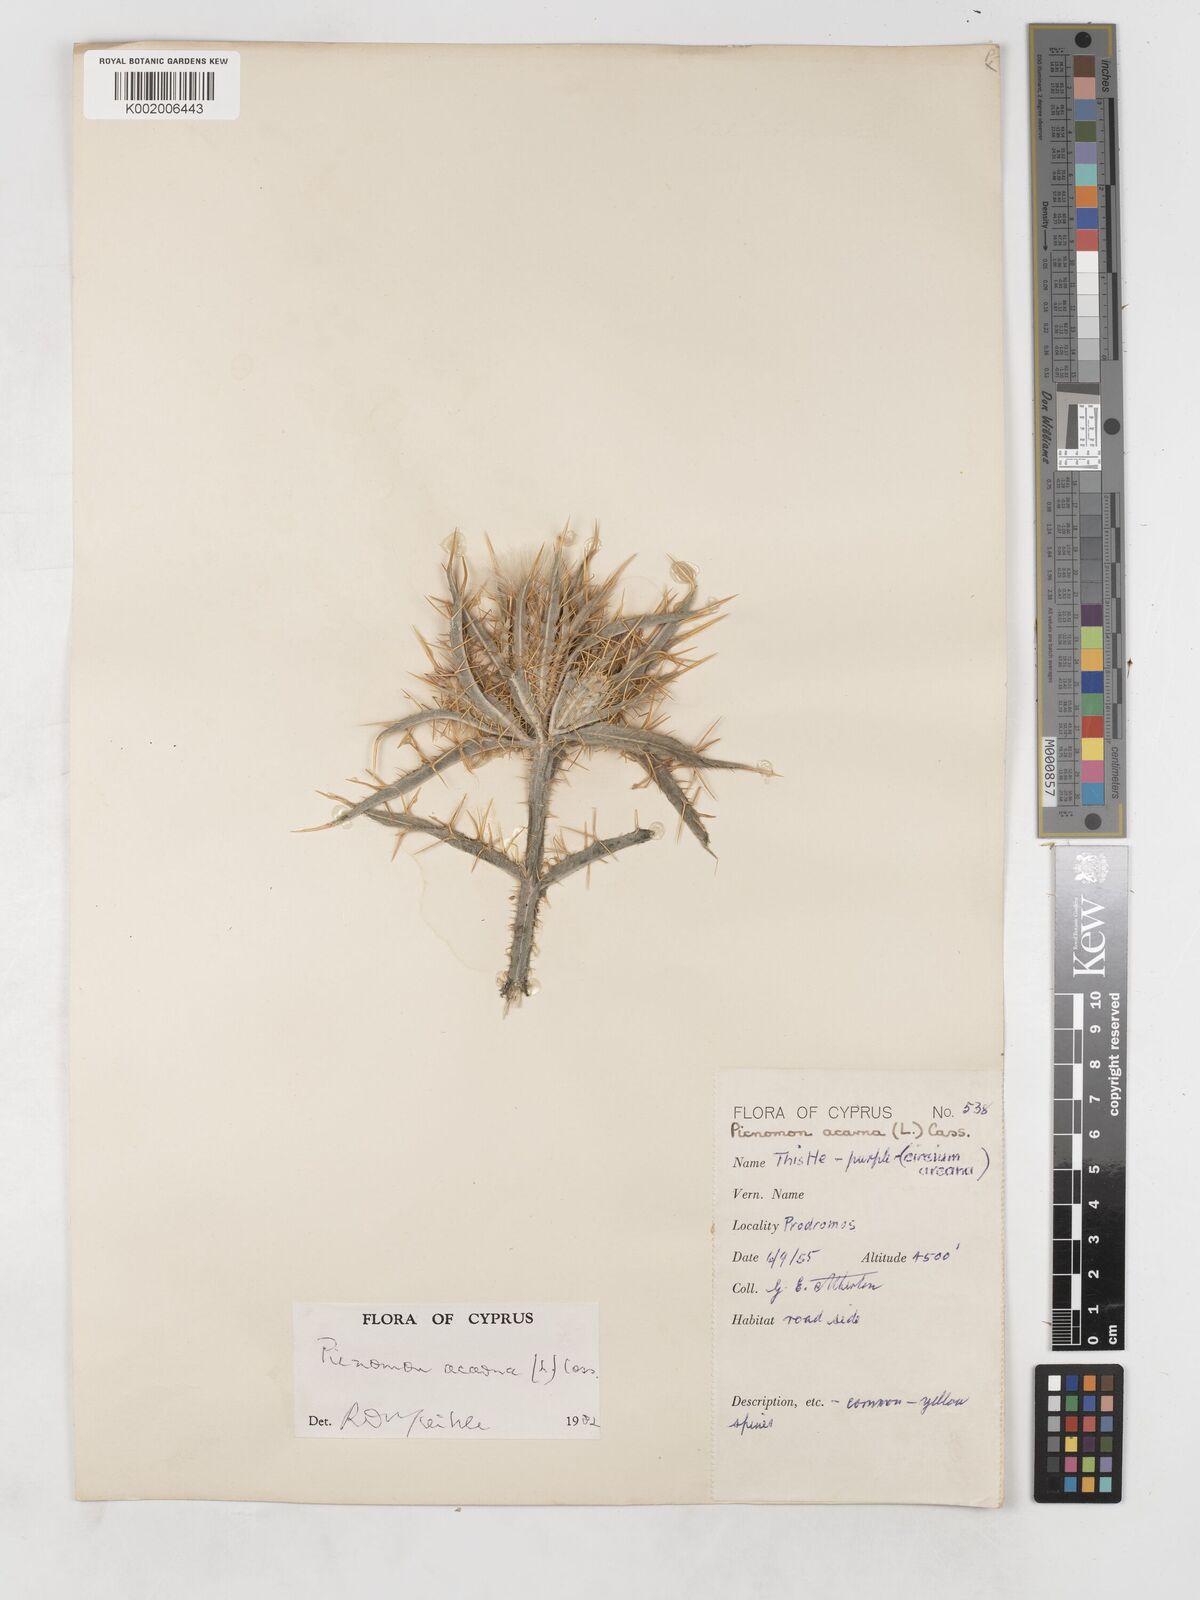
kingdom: Plantae
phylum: Tracheophyta
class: Magnoliopsida
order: Asterales
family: Asteraceae
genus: Picnomon
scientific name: Picnomon acarna
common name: Soldier thistle
